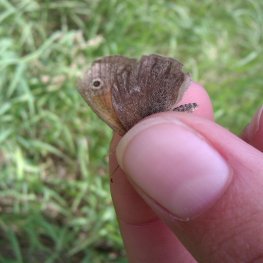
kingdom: Animalia
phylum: Arthropoda
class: Insecta
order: Lepidoptera
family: Nymphalidae
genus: Coenonympha
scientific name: Coenonympha tullia
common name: Large Heath
